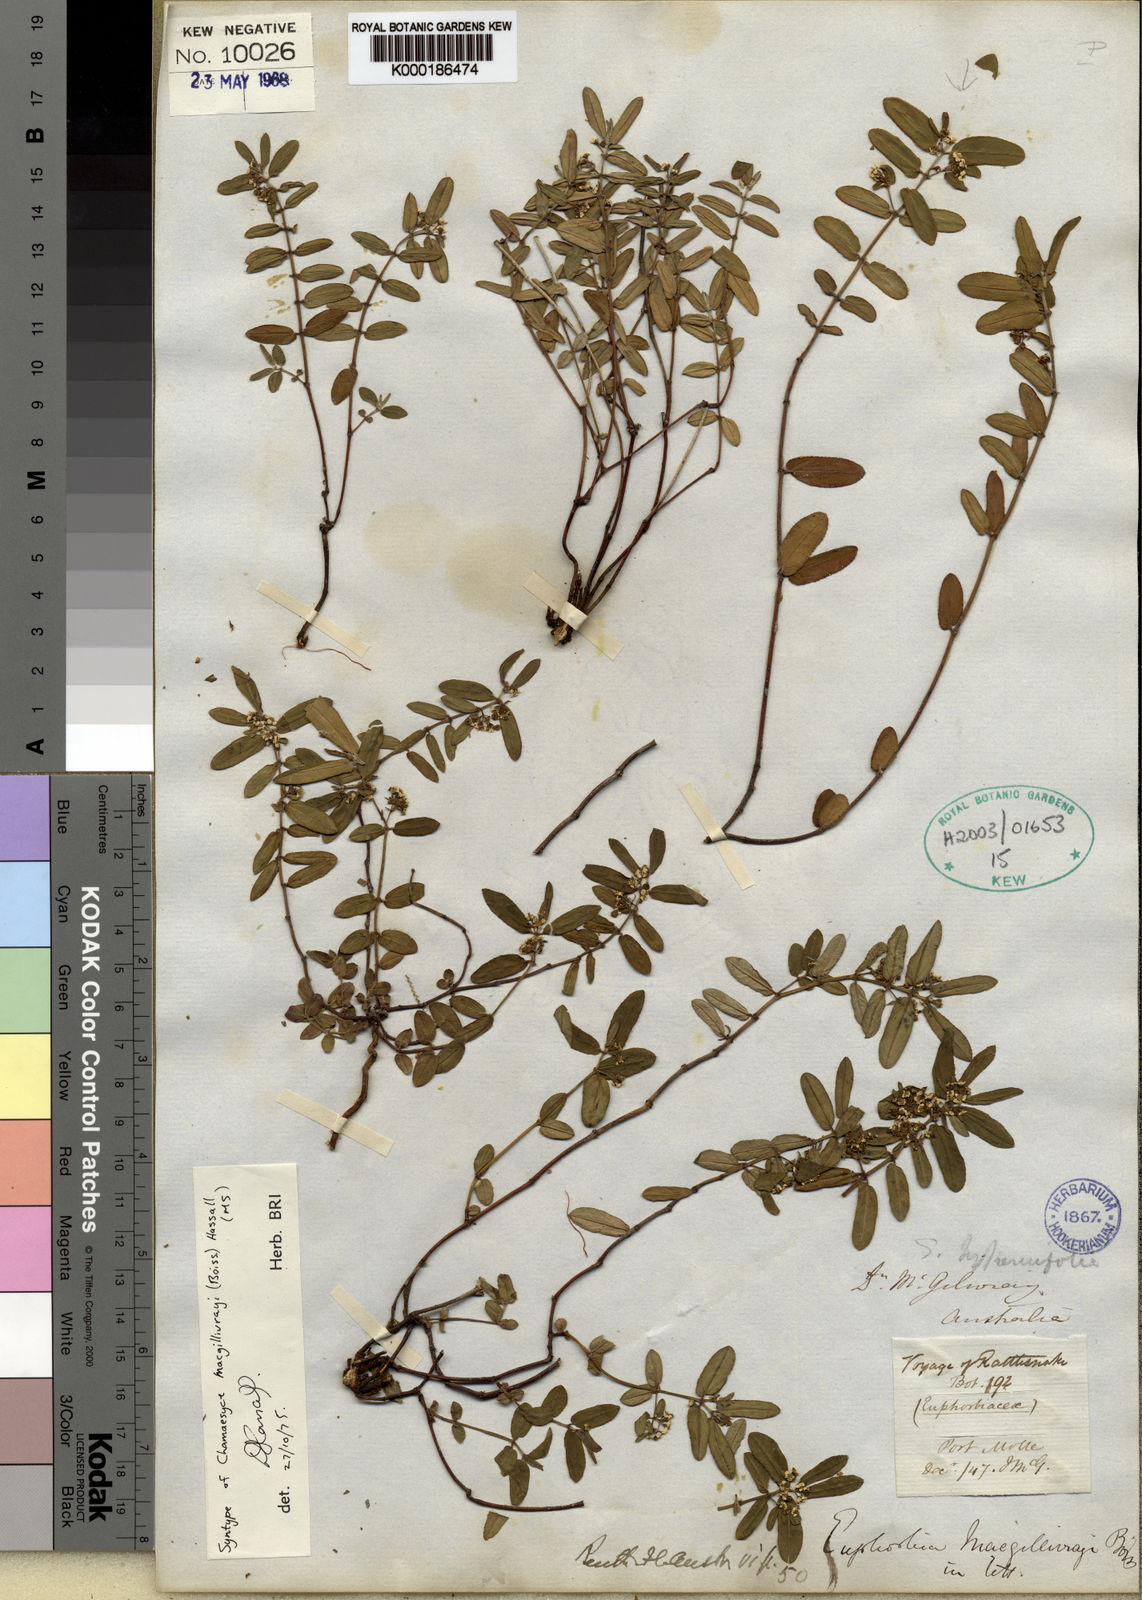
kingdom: Plantae
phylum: Tracheophyta
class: Magnoliopsida
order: Malpighiales
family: Euphorbiaceae
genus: Euphorbia
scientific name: Euphorbia bifida
